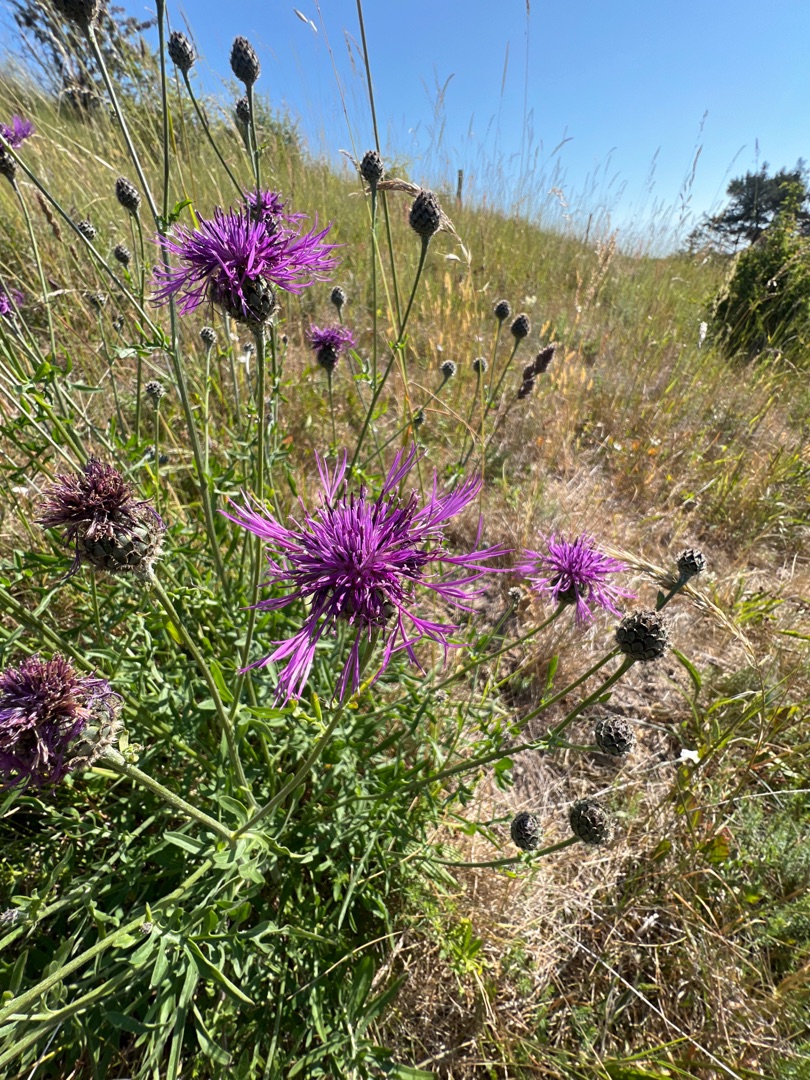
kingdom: Plantae
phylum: Tracheophyta
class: Magnoliopsida
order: Asterales
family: Asteraceae
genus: Centaurea
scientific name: Centaurea scabiosa
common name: Stor knopurt
